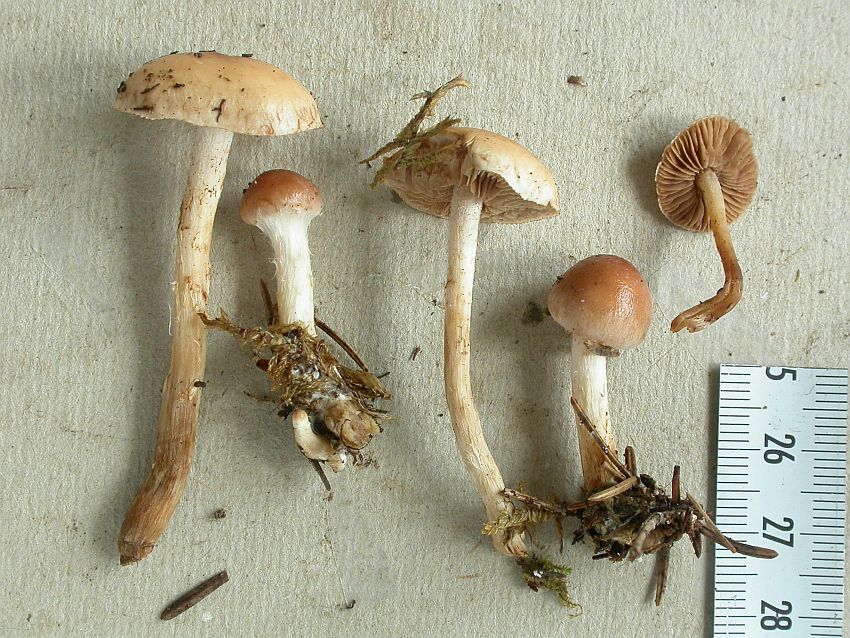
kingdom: Fungi
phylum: Basidiomycota
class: Agaricomycetes
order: Agaricales
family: Hymenogastraceae
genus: Hebeloma
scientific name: Hebeloma sordescens
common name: anløbende tåreblad
